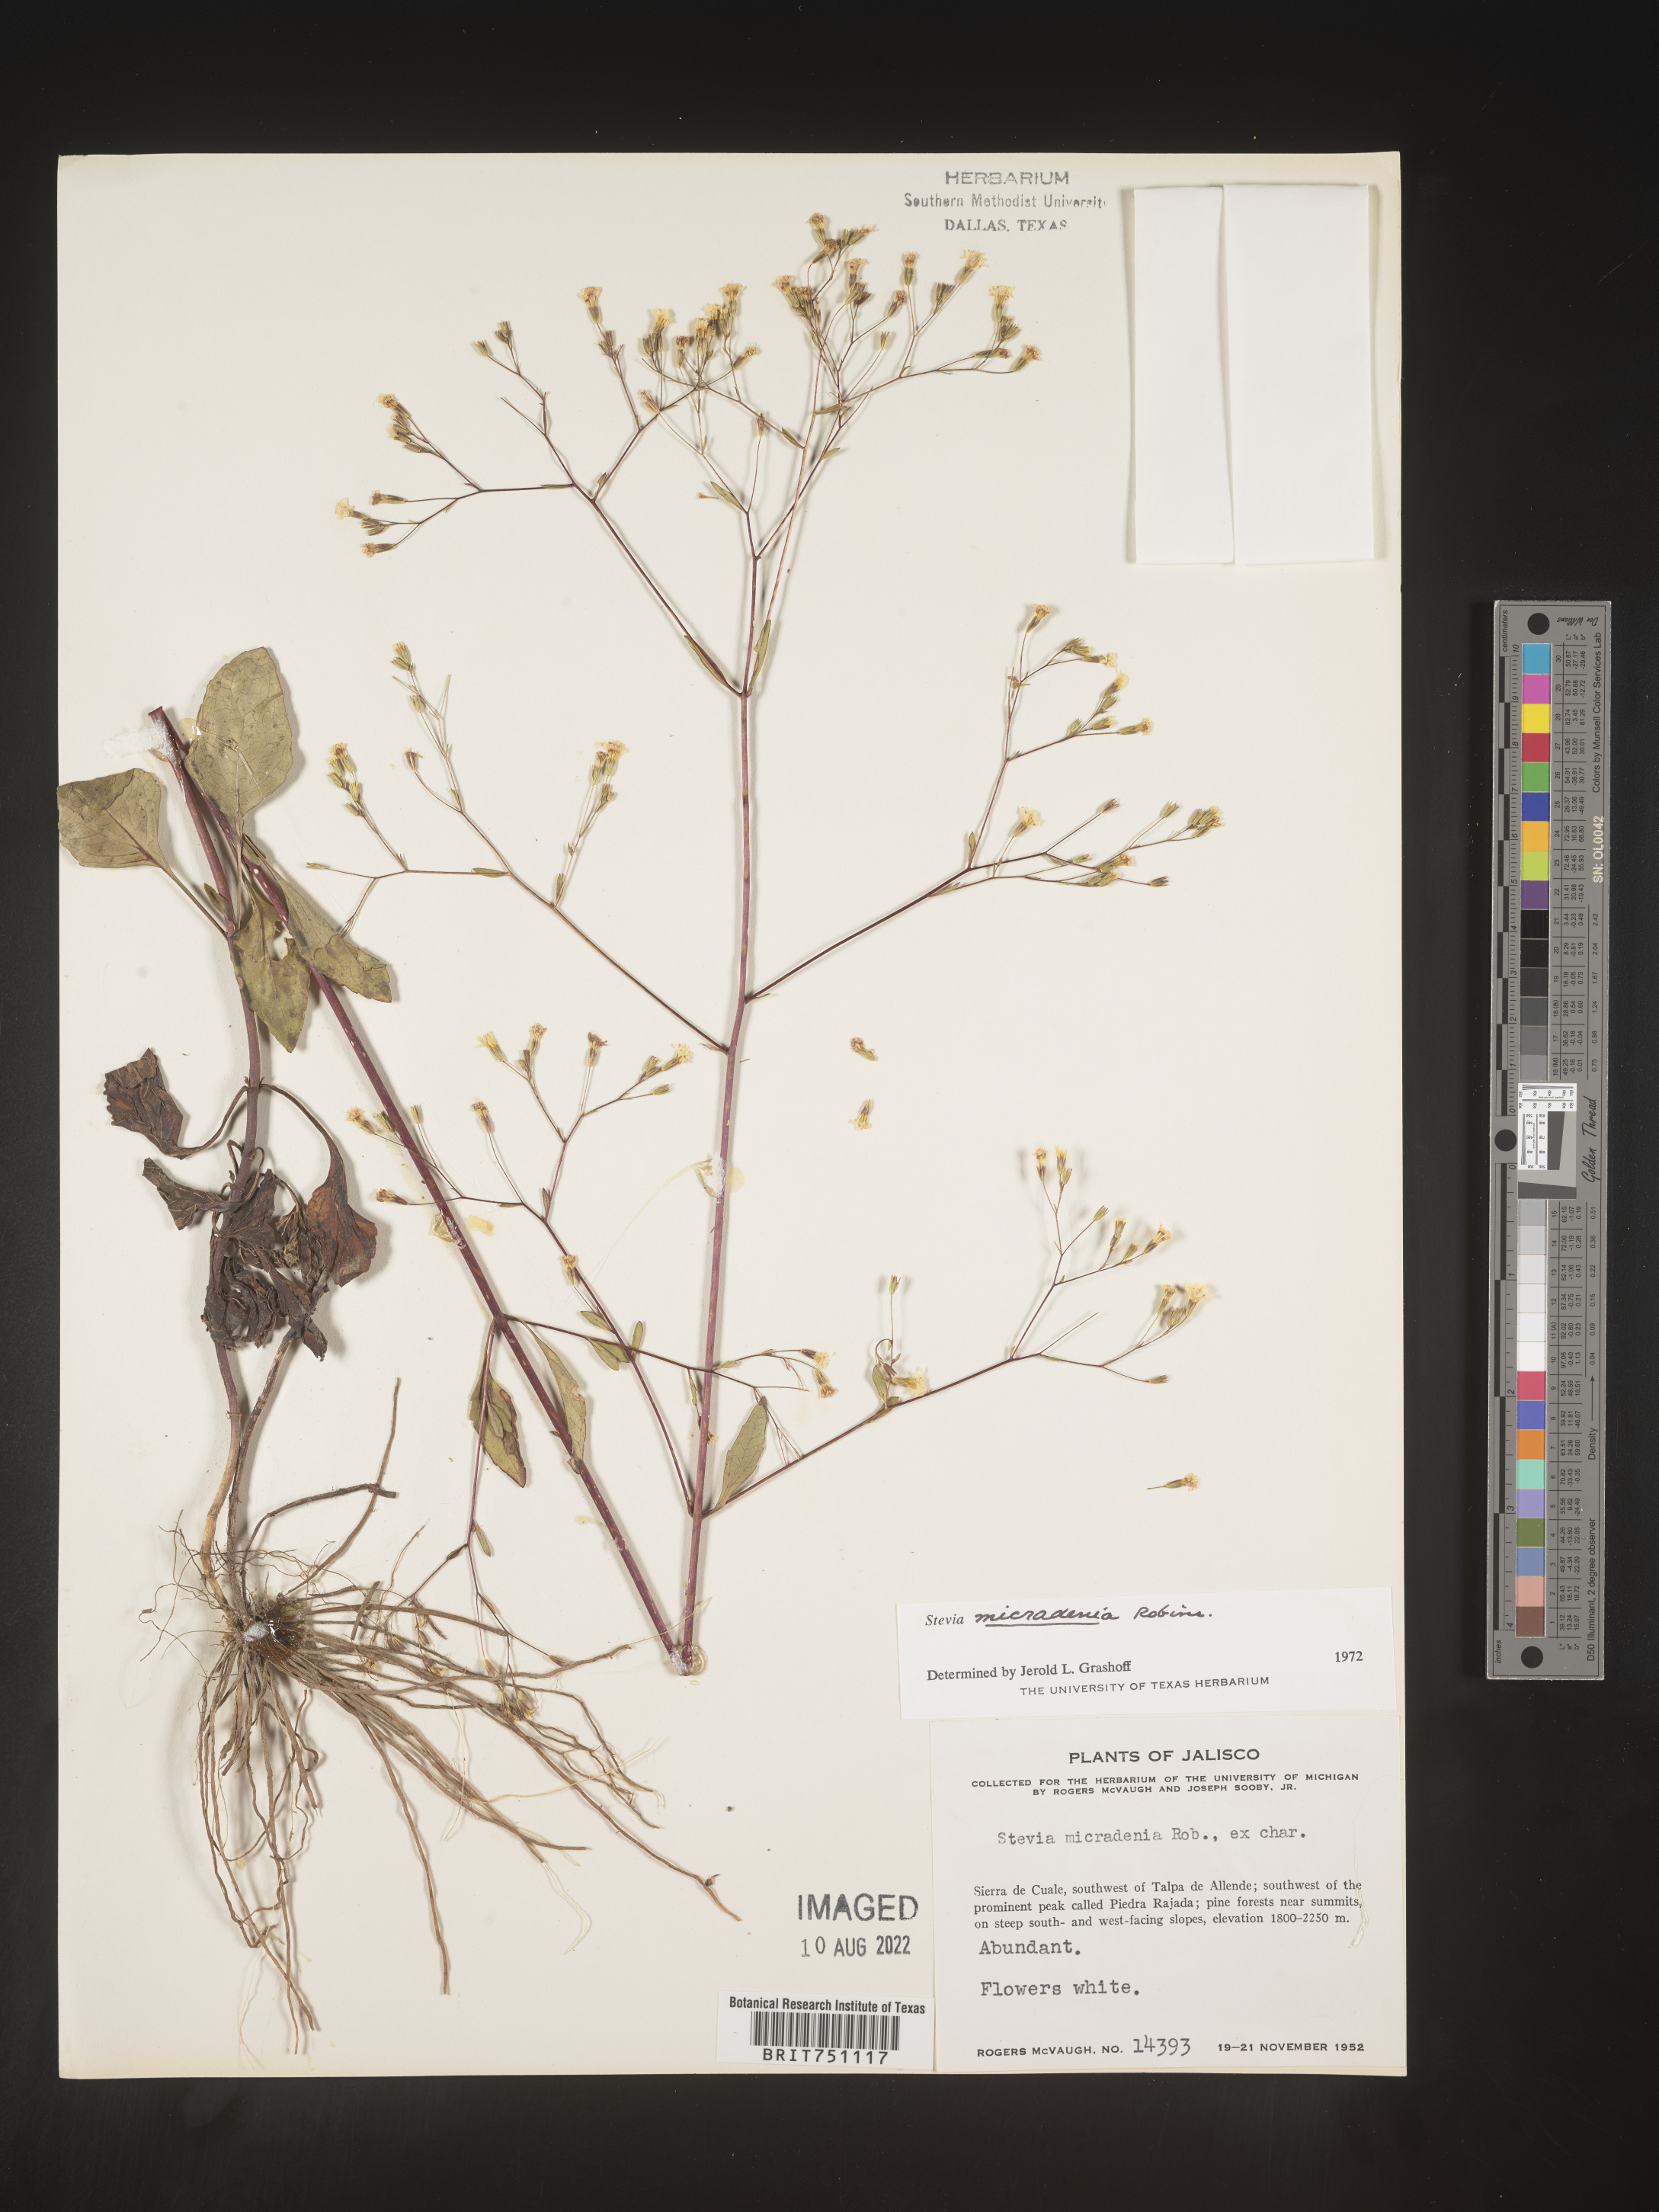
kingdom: Plantae
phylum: Tracheophyta
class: Magnoliopsida
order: Asterales
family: Asteraceae
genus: Stevia
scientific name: Stevia
